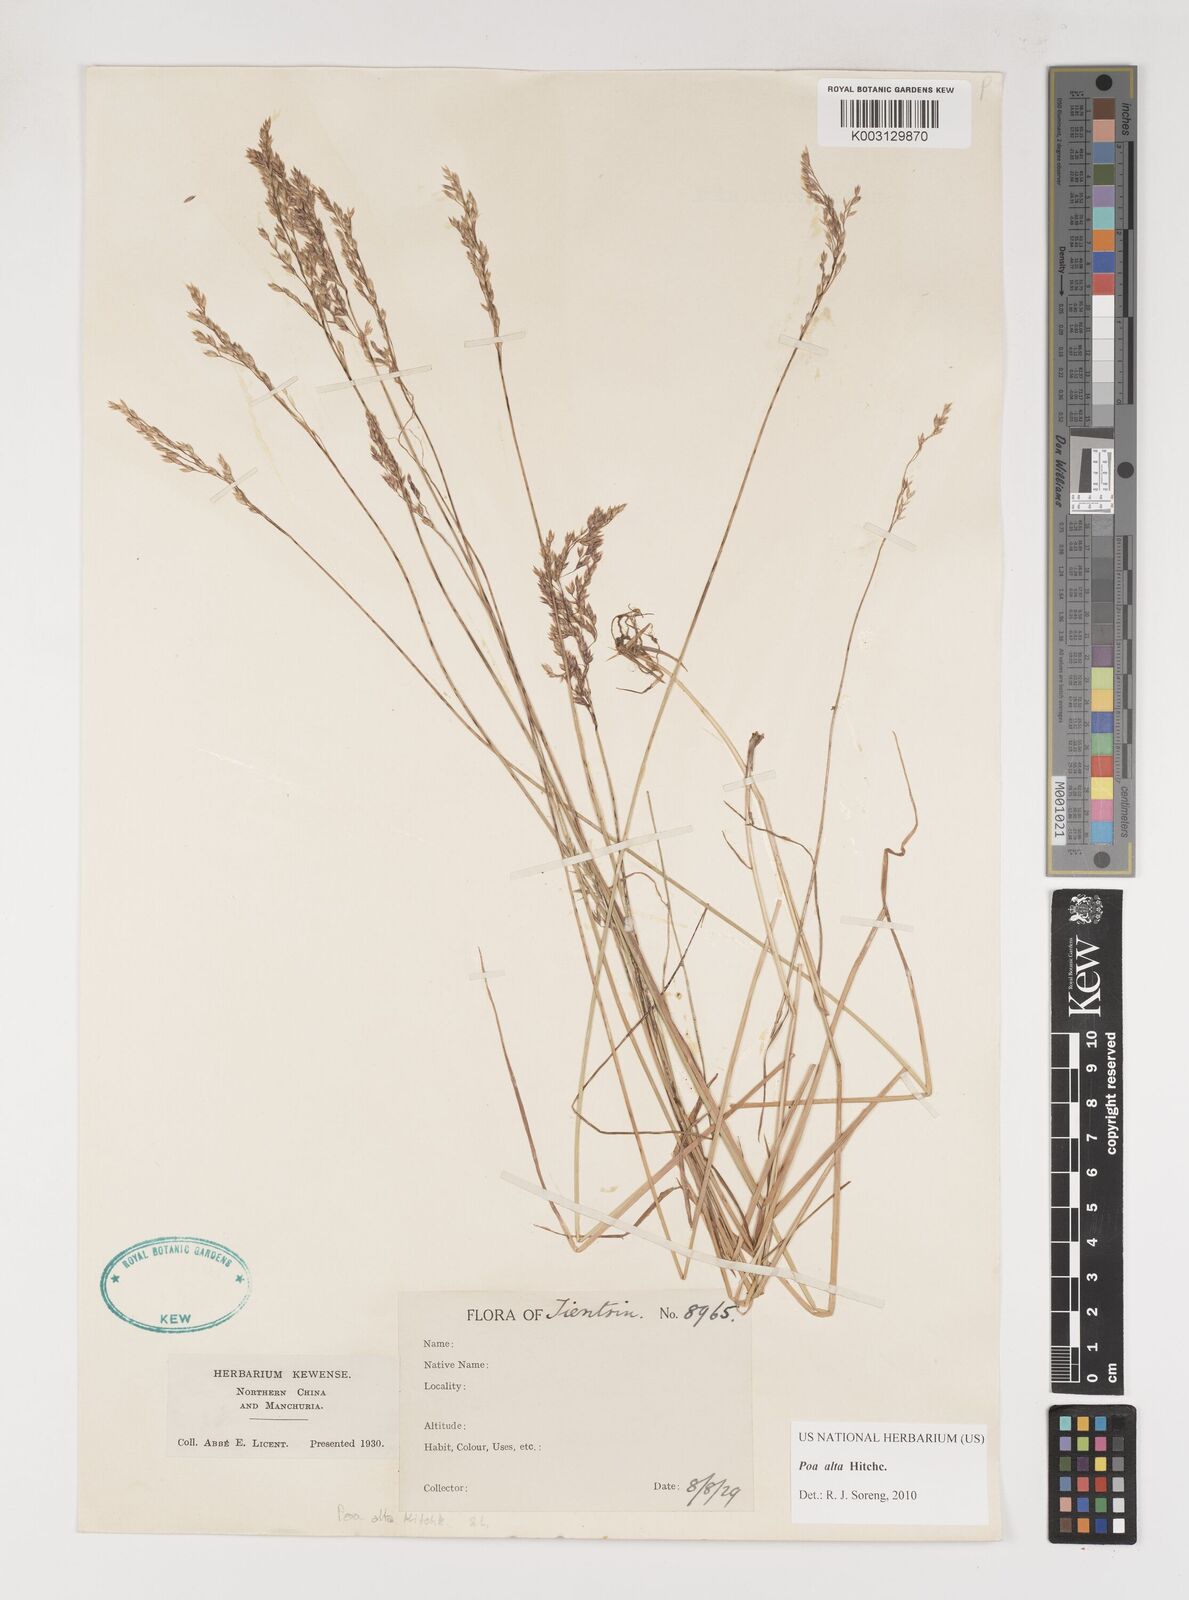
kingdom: Plantae
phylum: Tracheophyta
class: Liliopsida
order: Poales
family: Poaceae
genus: Poa
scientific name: Poa alta
